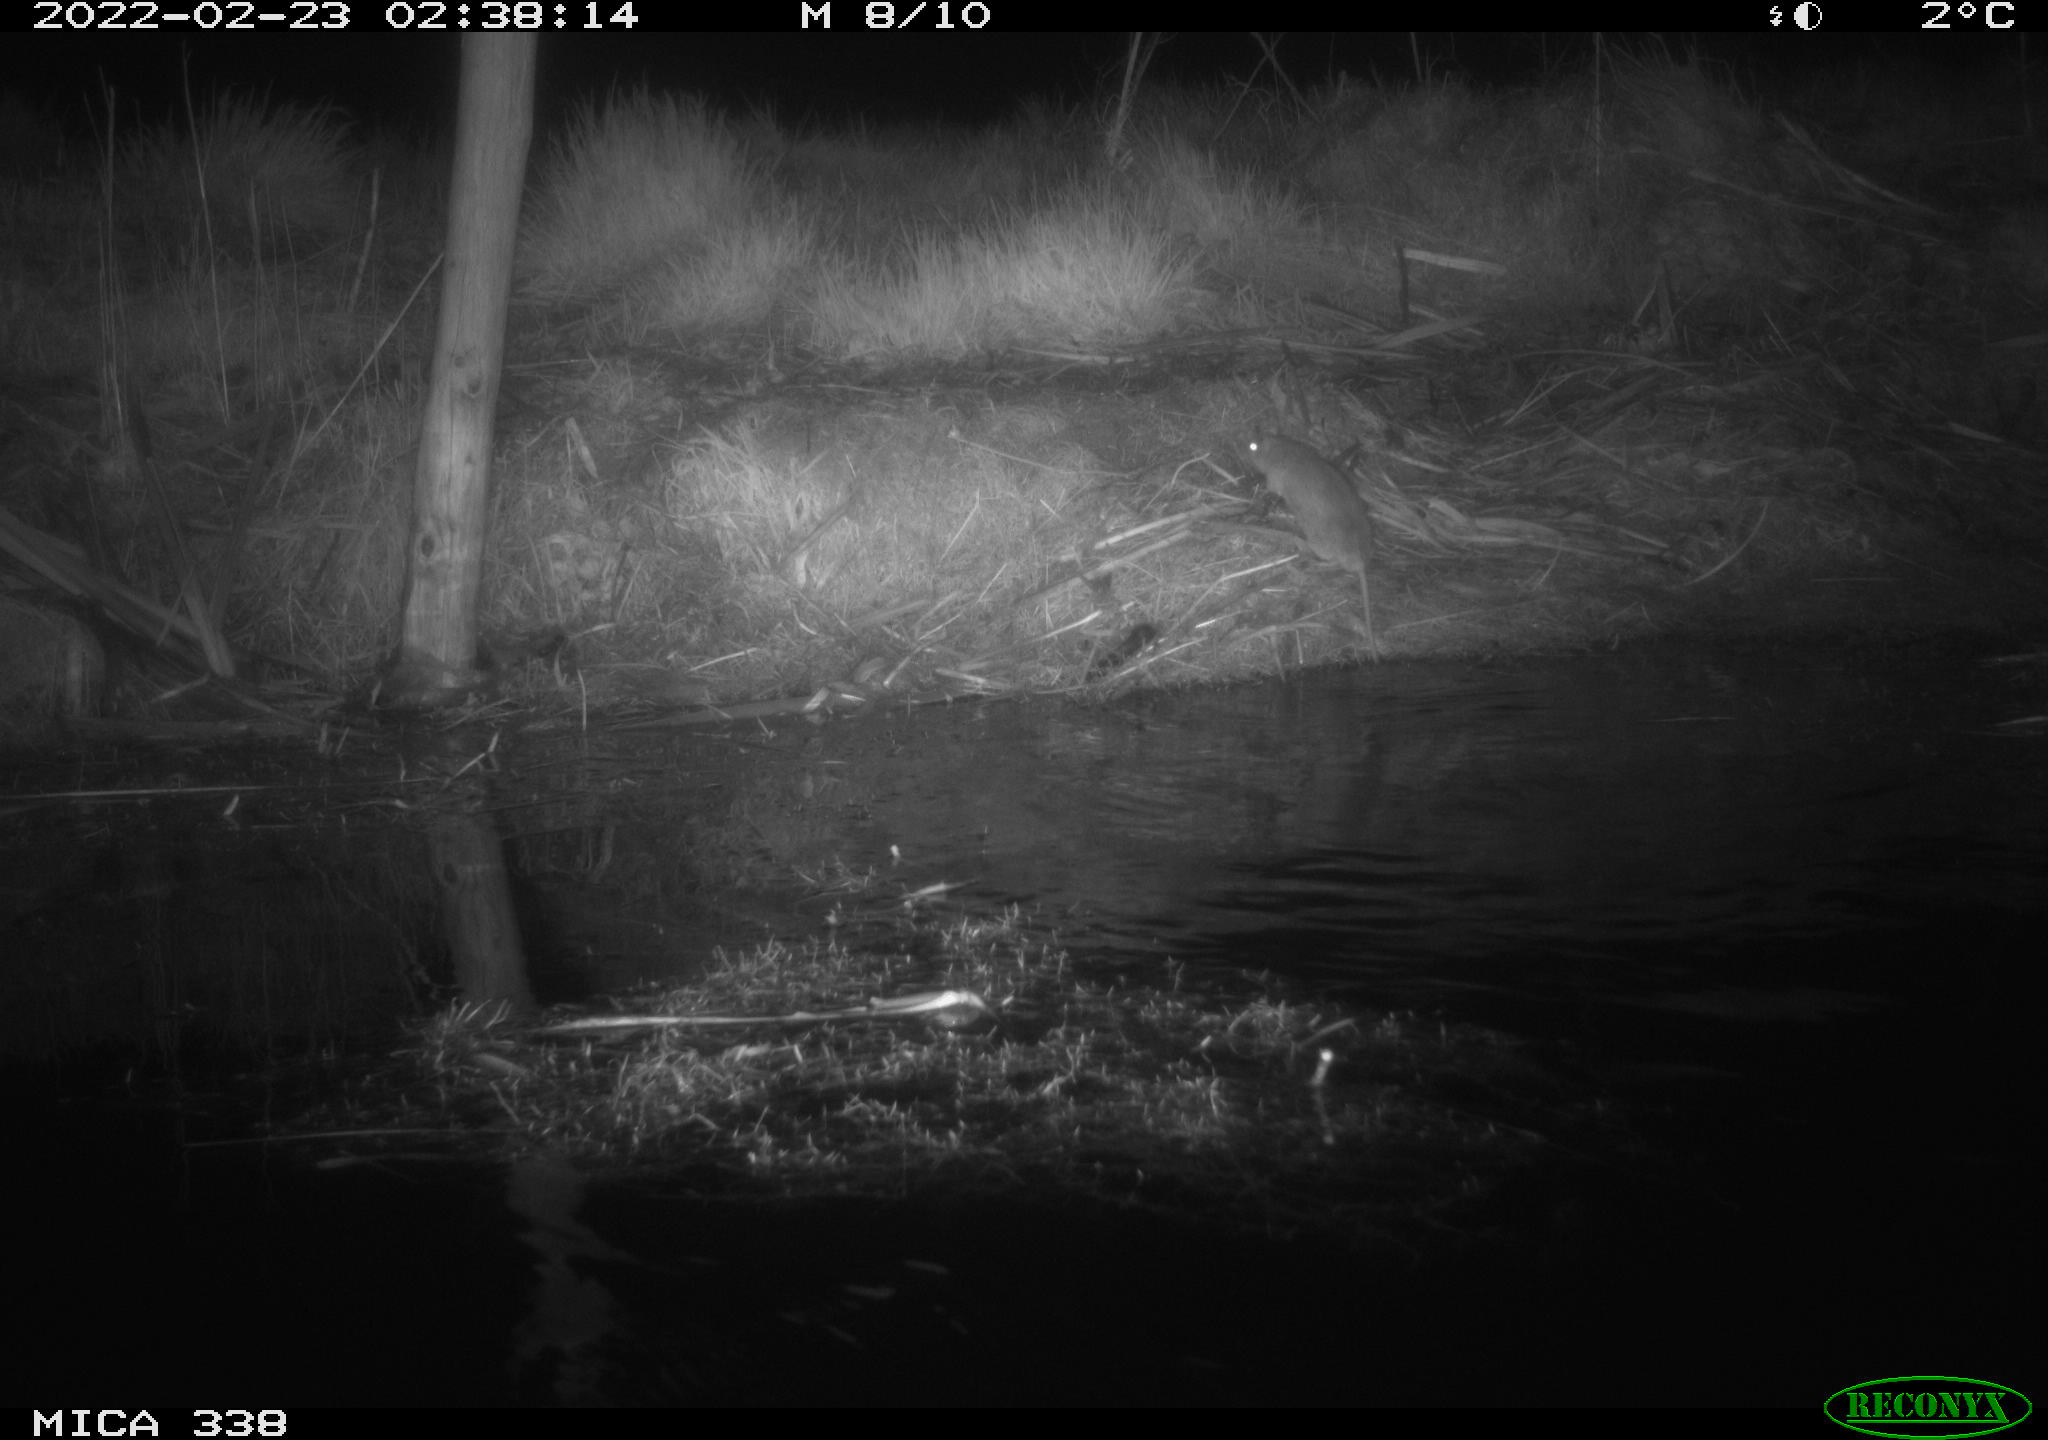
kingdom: Animalia
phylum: Chordata
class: Mammalia
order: Rodentia
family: Muridae
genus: Rattus
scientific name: Rattus norvegicus
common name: Brown rat
